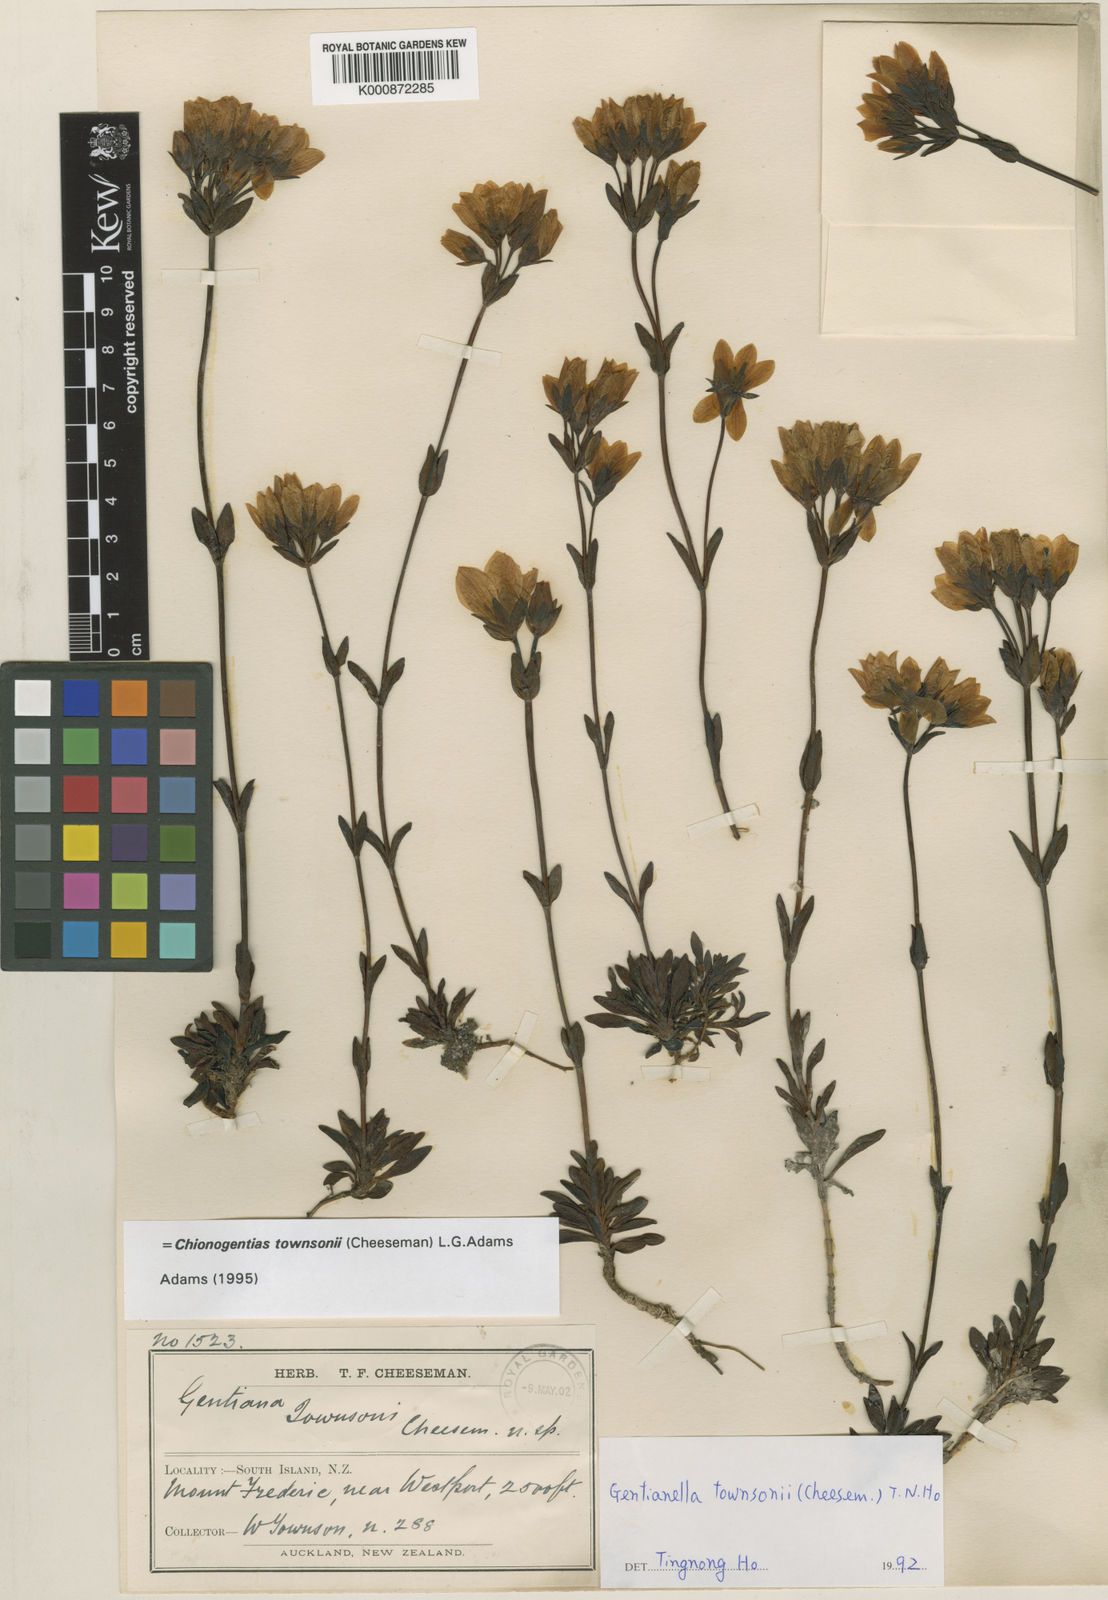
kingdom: Plantae
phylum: Tracheophyta
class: Magnoliopsida
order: Gentianales
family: Gentianaceae
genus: Gentianella
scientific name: Gentianella montana
